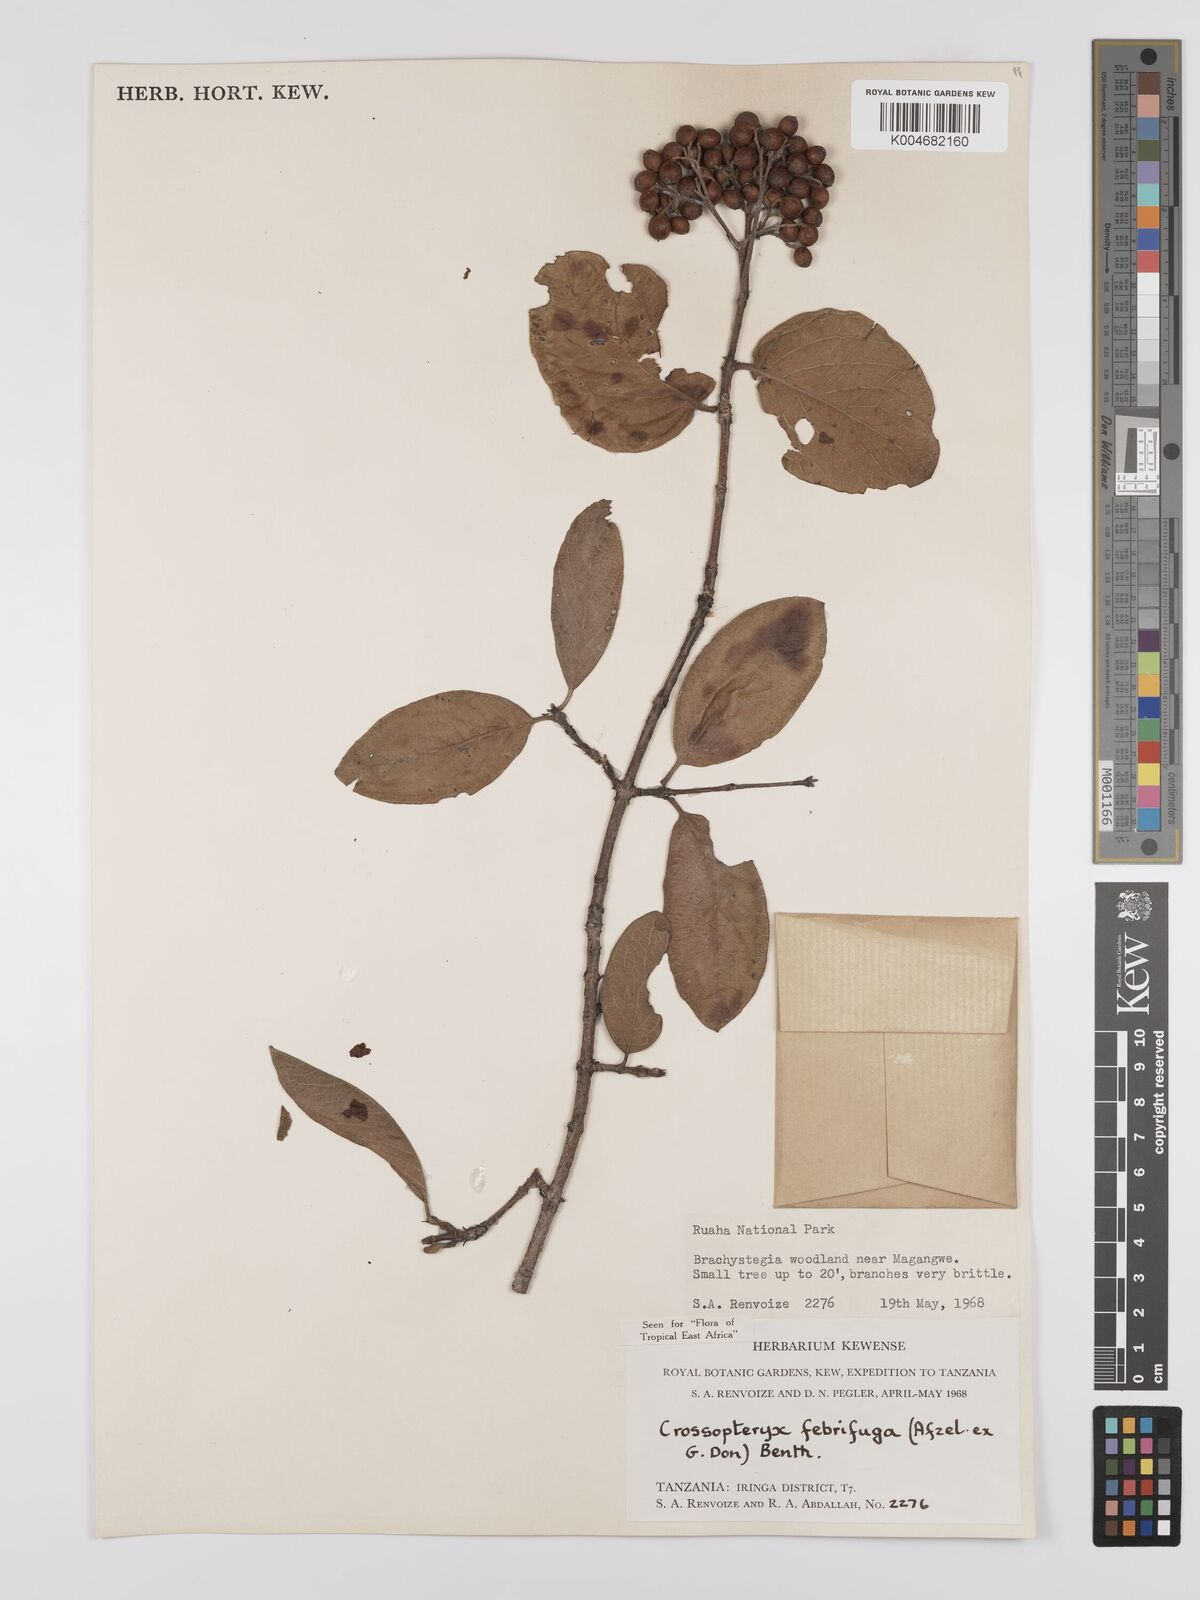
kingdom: Plantae
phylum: Tracheophyta
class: Magnoliopsida
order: Gentianales
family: Rubiaceae
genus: Crossopteryx
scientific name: Crossopteryx febrifuga
